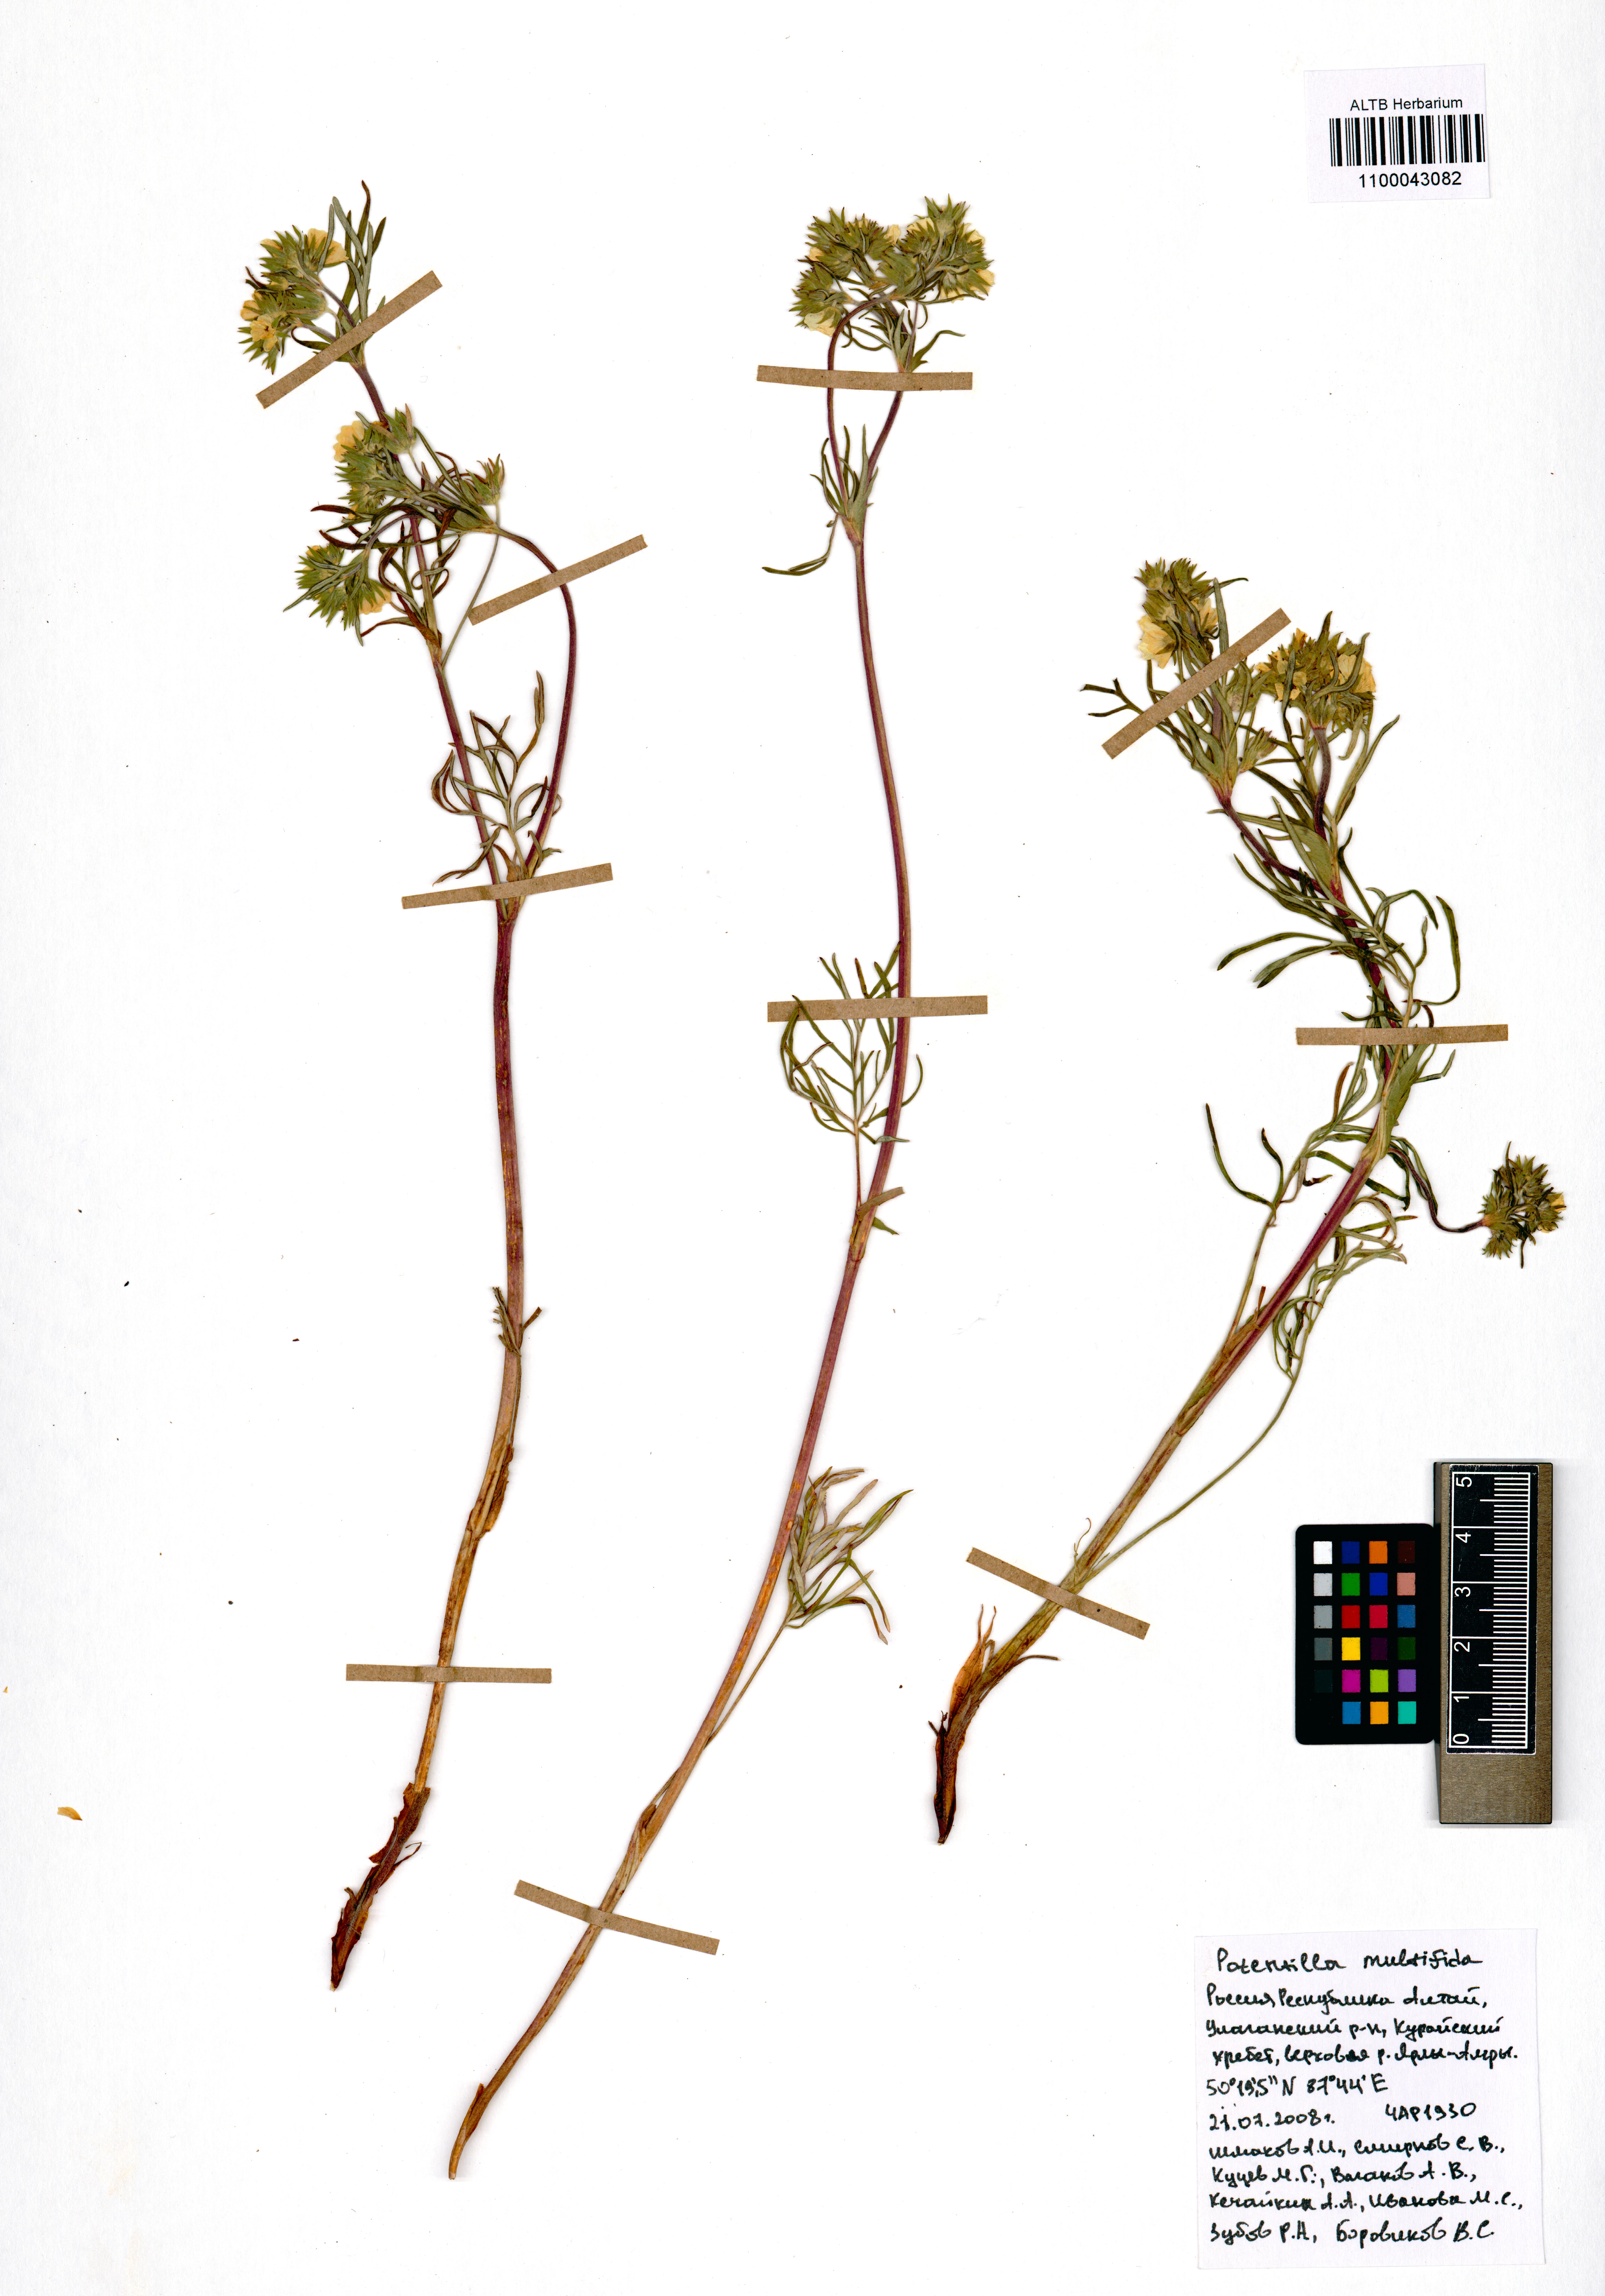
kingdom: Plantae
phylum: Tracheophyta
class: Magnoliopsida
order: Rosales
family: Rosaceae
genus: Potentilla
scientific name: Potentilla multifida
